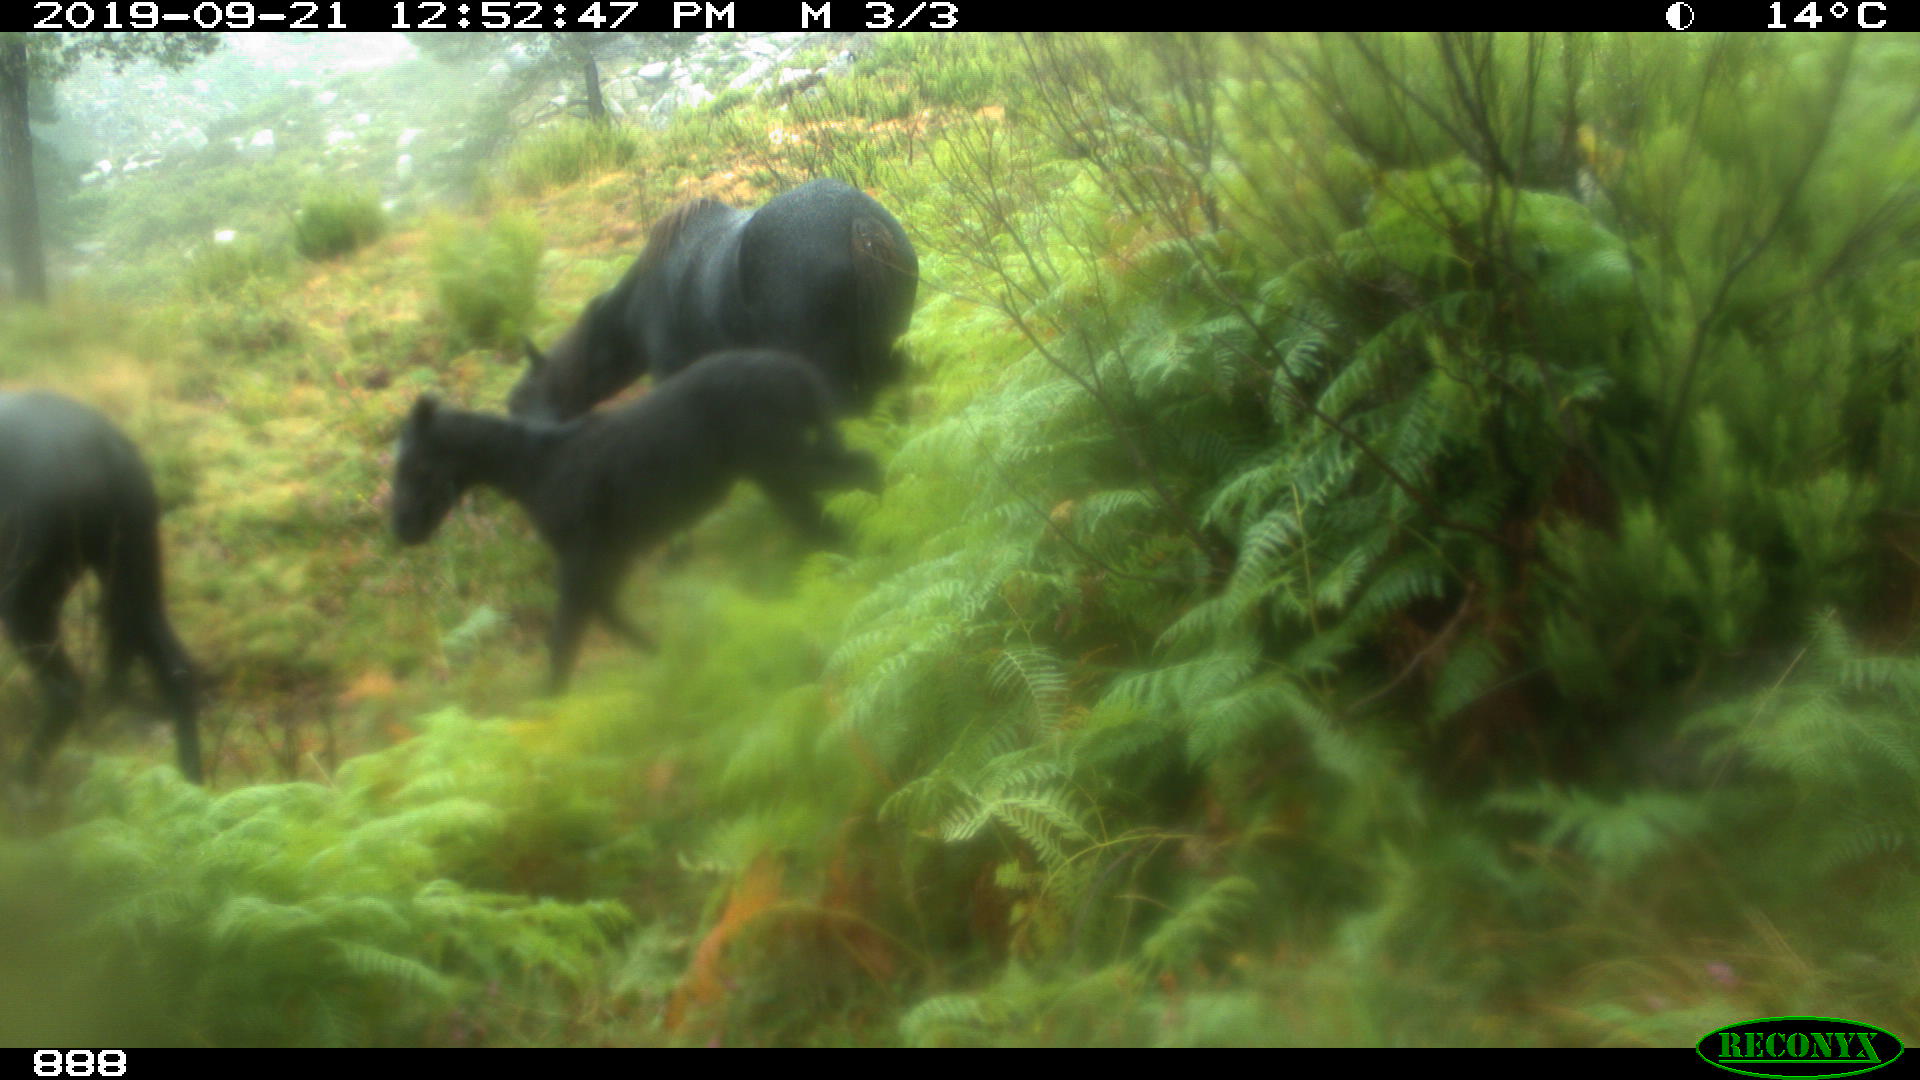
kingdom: Animalia
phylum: Chordata
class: Mammalia
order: Perissodactyla
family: Equidae
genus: Equus
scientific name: Equus caballus
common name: Horse
